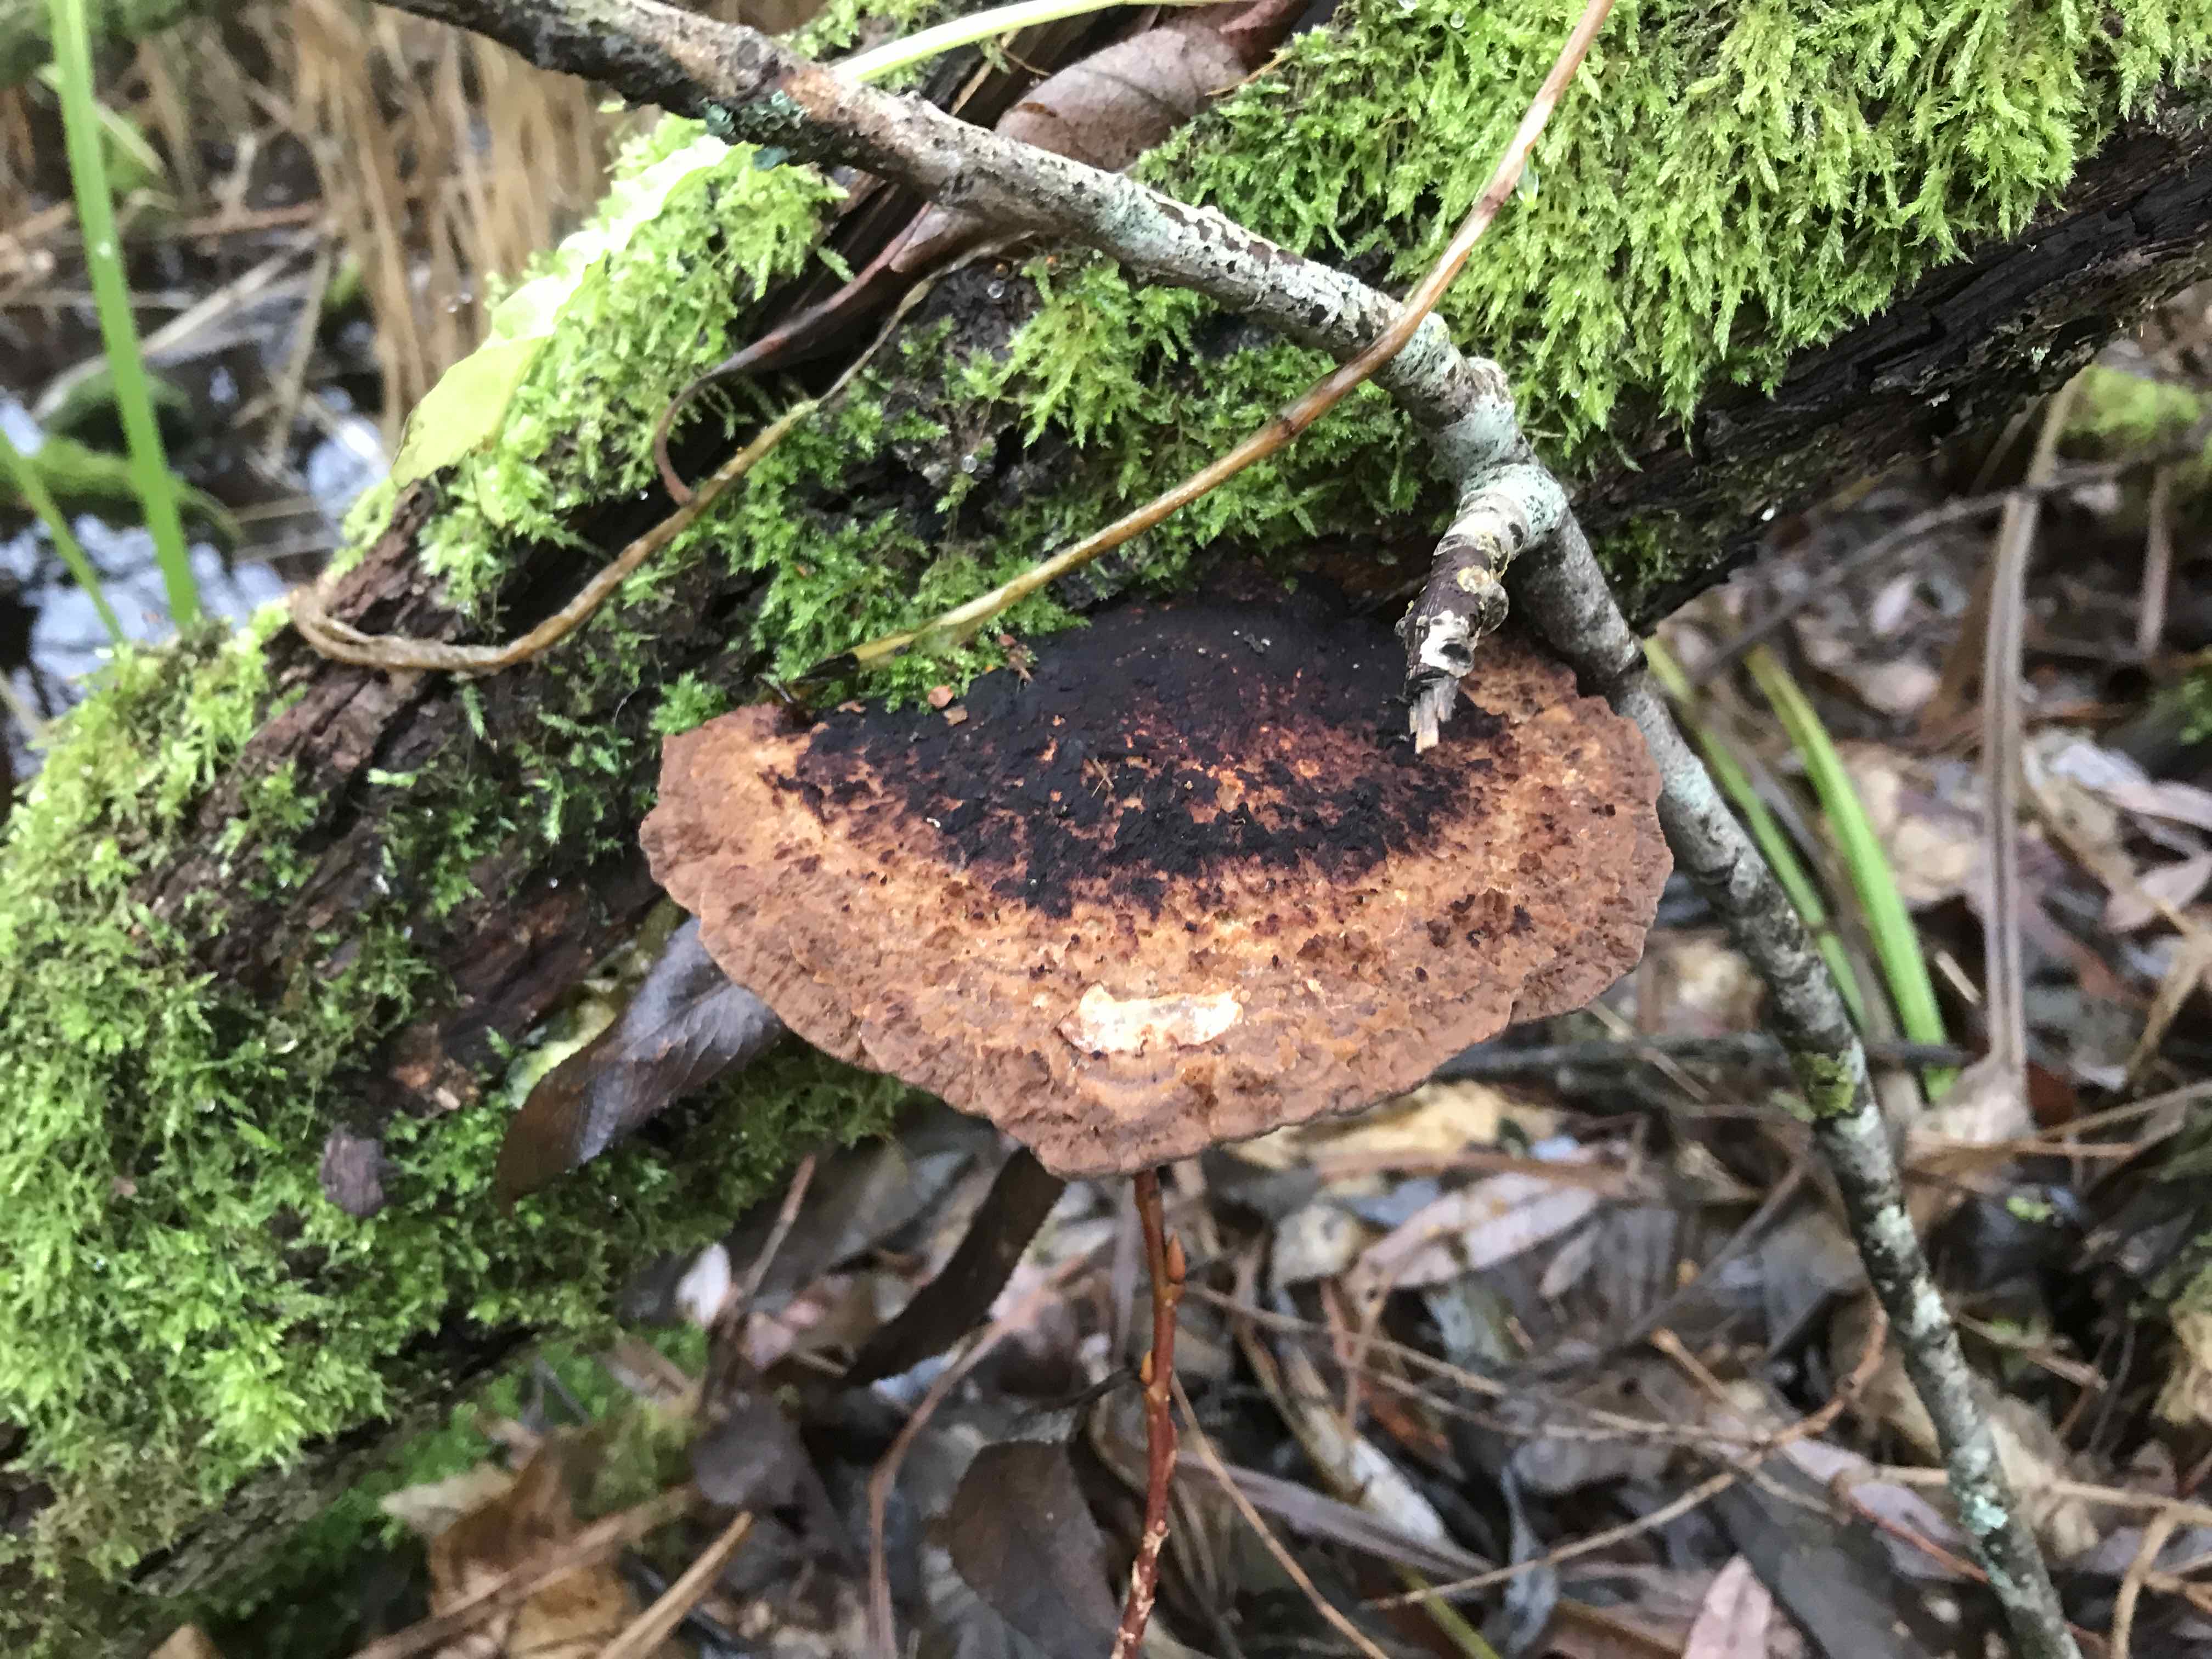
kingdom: Fungi
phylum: Basidiomycota
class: Agaricomycetes
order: Polyporales
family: Polyporaceae
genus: Daedaleopsis
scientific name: Daedaleopsis confragosa
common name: rødmende læderporesvamp
